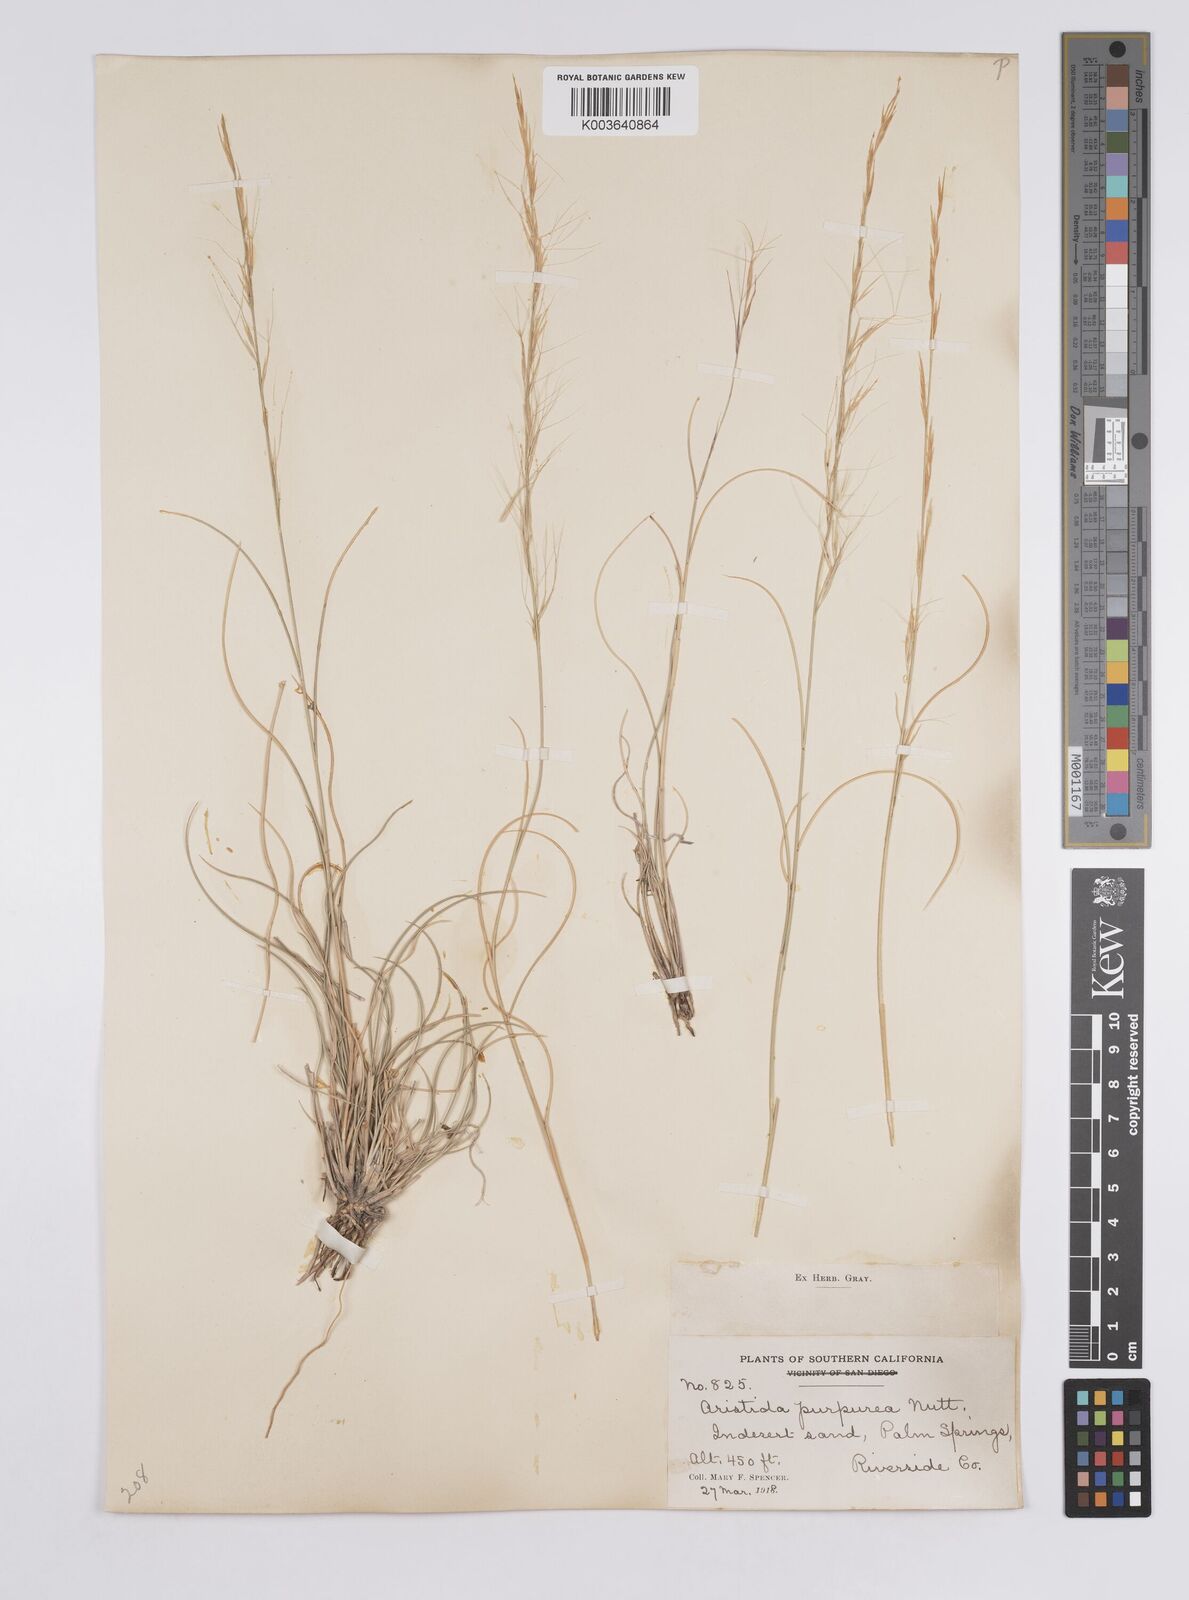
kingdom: Plantae
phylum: Tracheophyta
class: Liliopsida
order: Poales
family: Poaceae
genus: Aristida
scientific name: Aristida purpurea
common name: Purple threeawn
